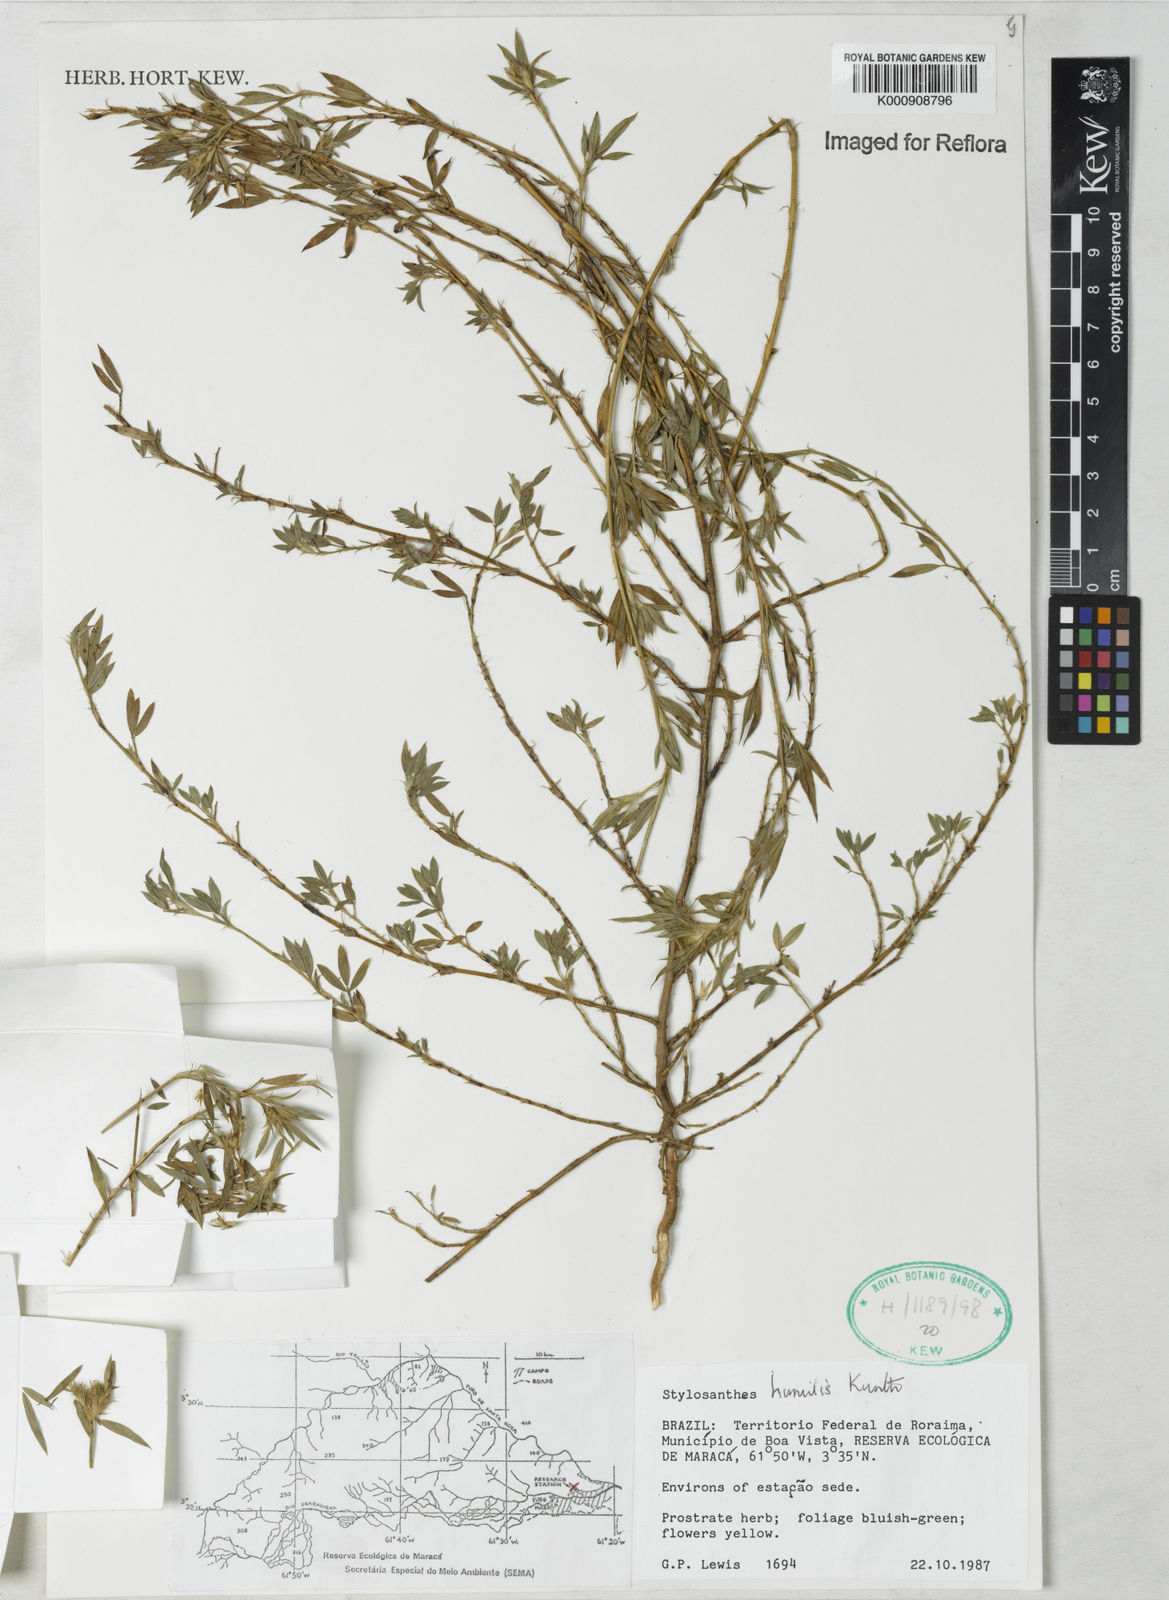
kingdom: Plantae
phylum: Tracheophyta
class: Magnoliopsida
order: Fabales
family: Fabaceae
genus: Stylosanthes
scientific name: Stylosanthes humilis
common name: Townsville stylo
